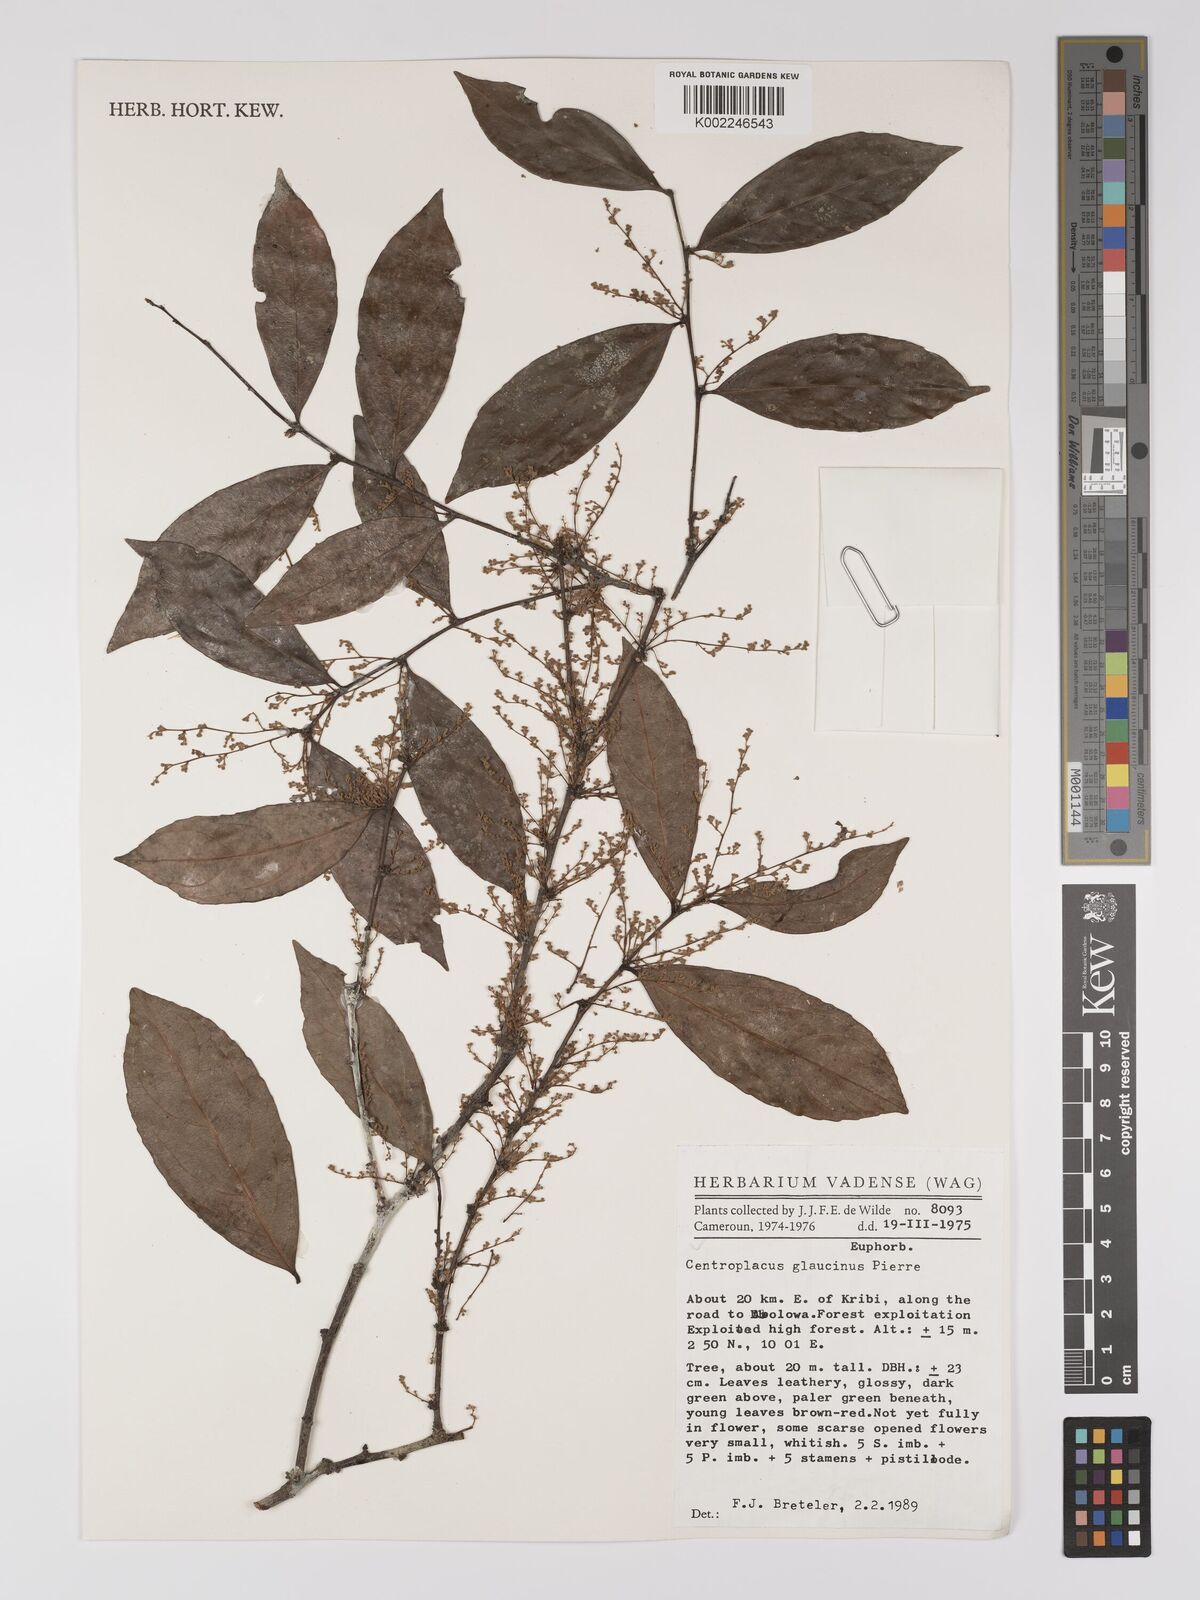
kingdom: Plantae
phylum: Tracheophyta
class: Magnoliopsida
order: Malpighiales
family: Centroplacaceae
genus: Centroplacus
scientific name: Centroplacus glaucinus
